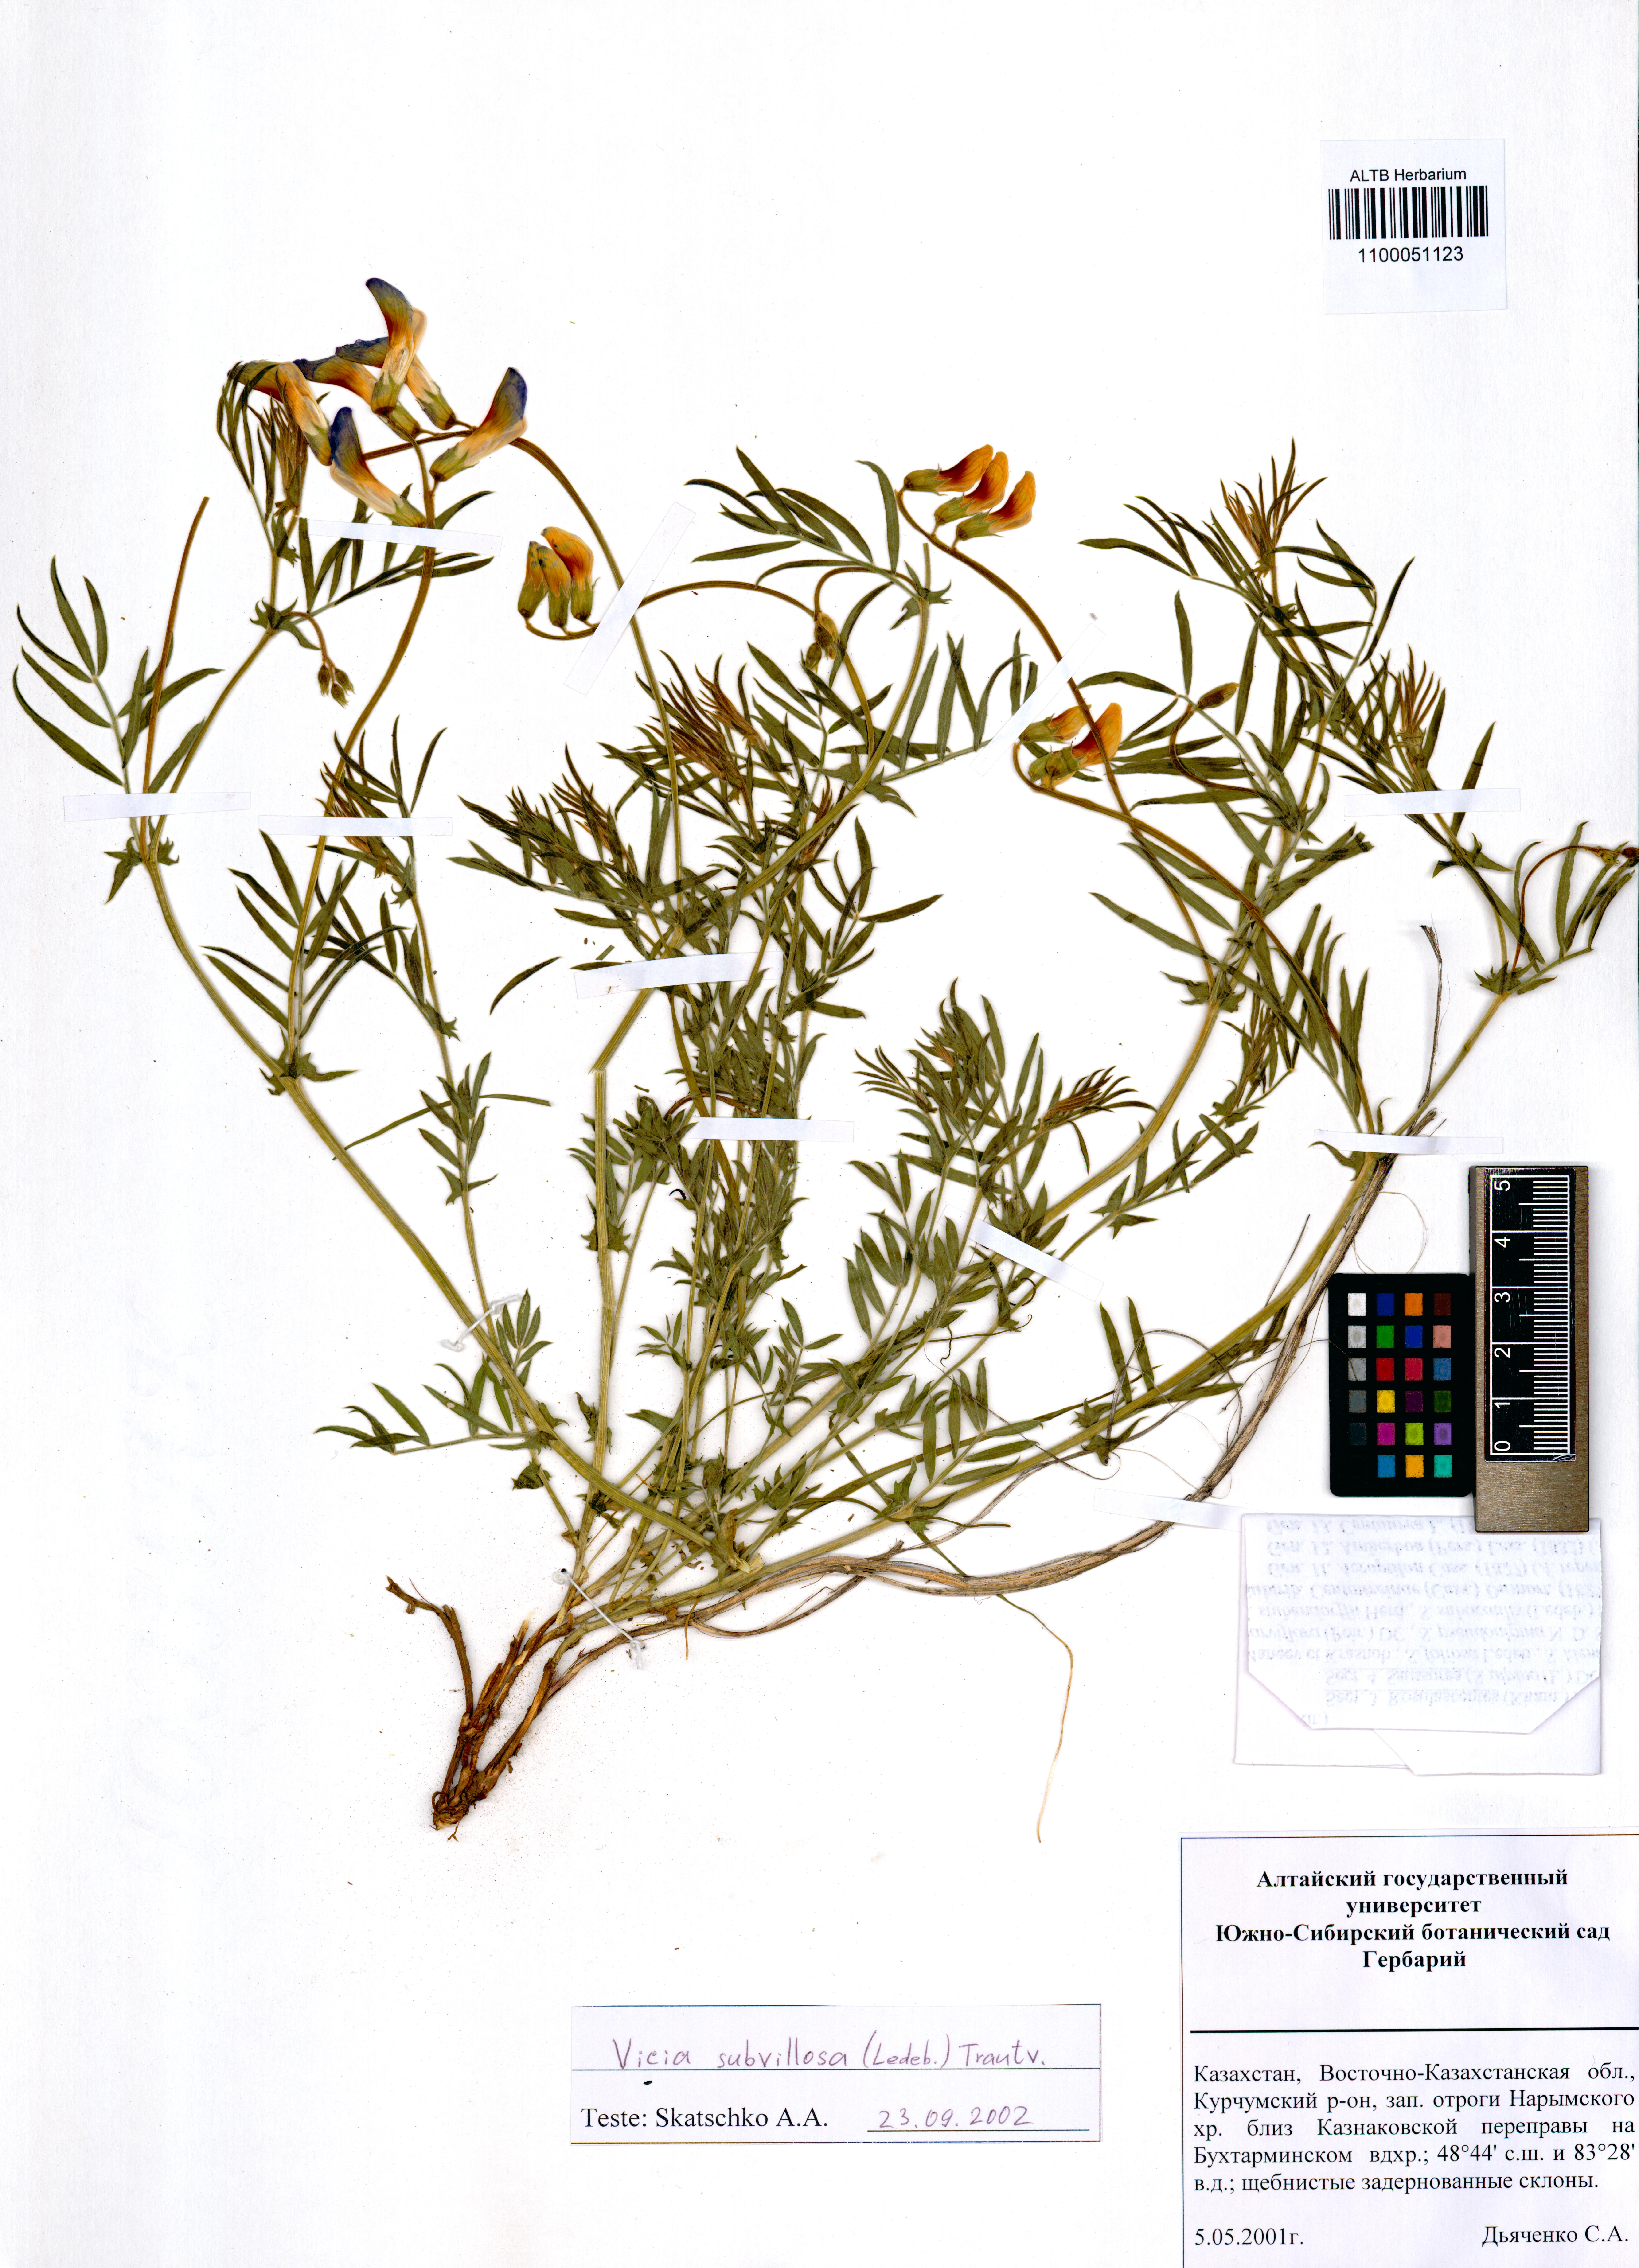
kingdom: Plantae
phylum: Tracheophyta
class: Magnoliopsida
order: Fabales
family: Fabaceae
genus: Vicia
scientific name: Vicia subvillosa
